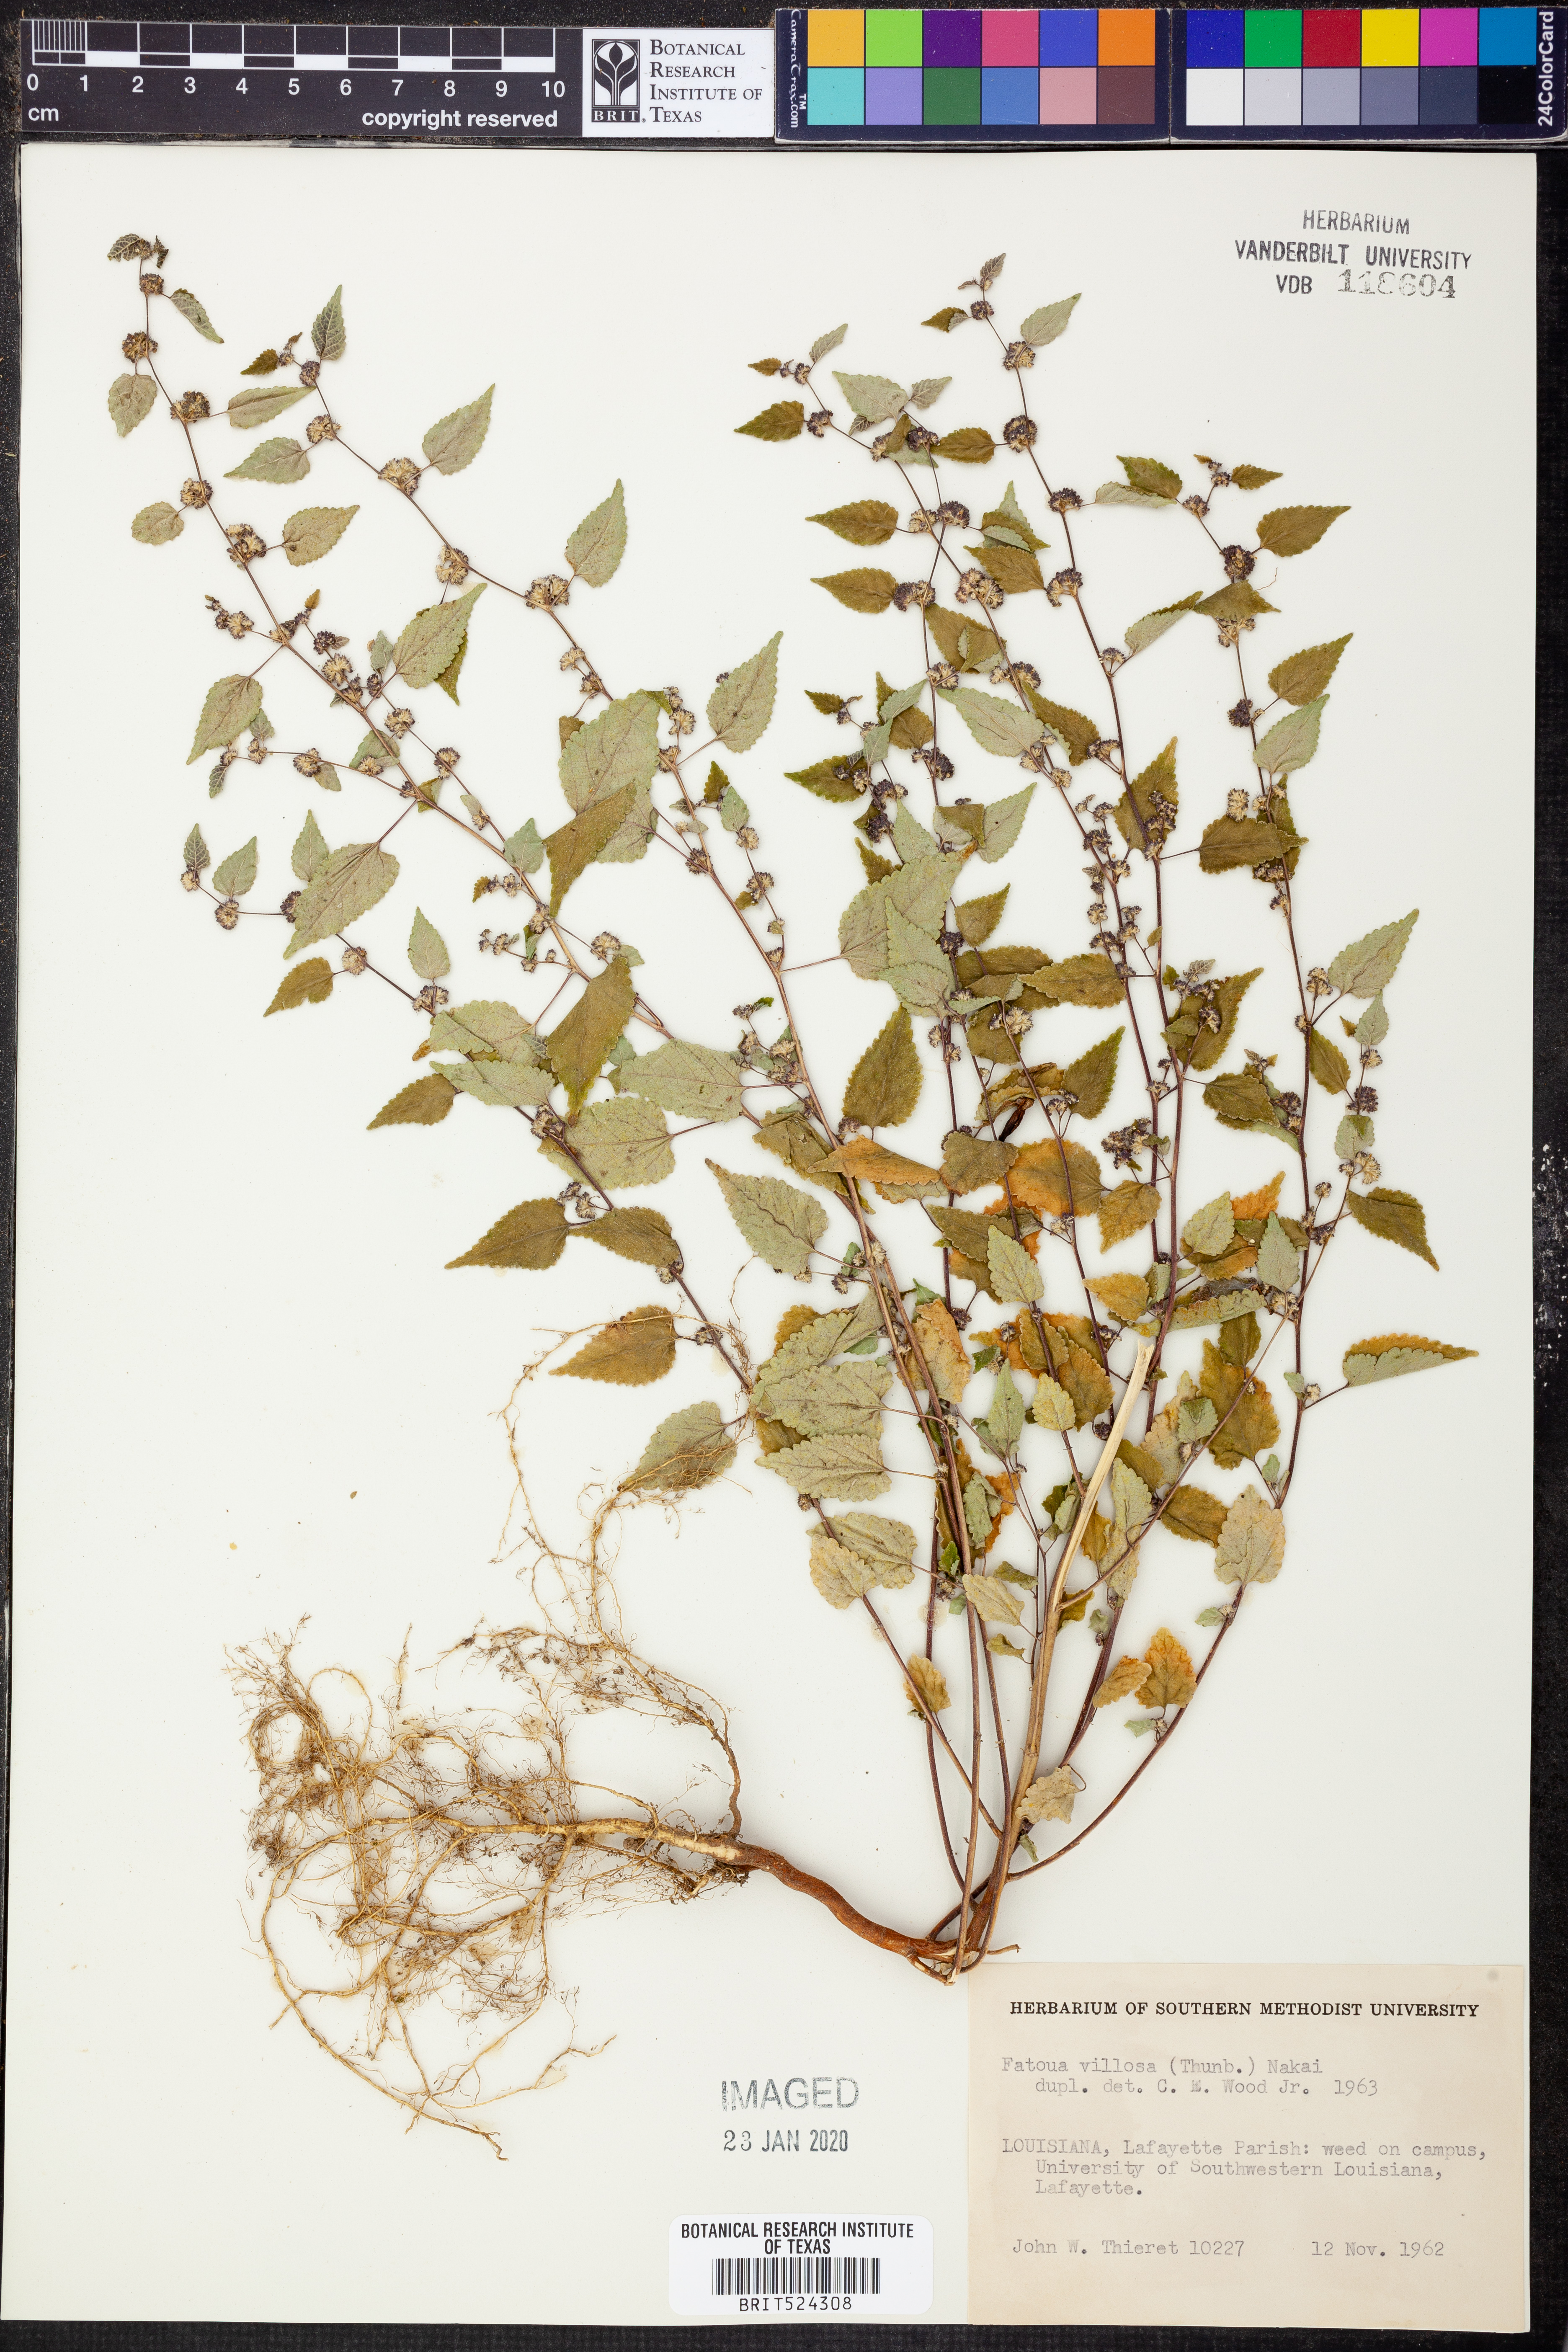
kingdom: Plantae
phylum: Tracheophyta
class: Magnoliopsida
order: Rosales
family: Moraceae
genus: Fatoua
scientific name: Fatoua villosa
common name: Hairy crabweed
